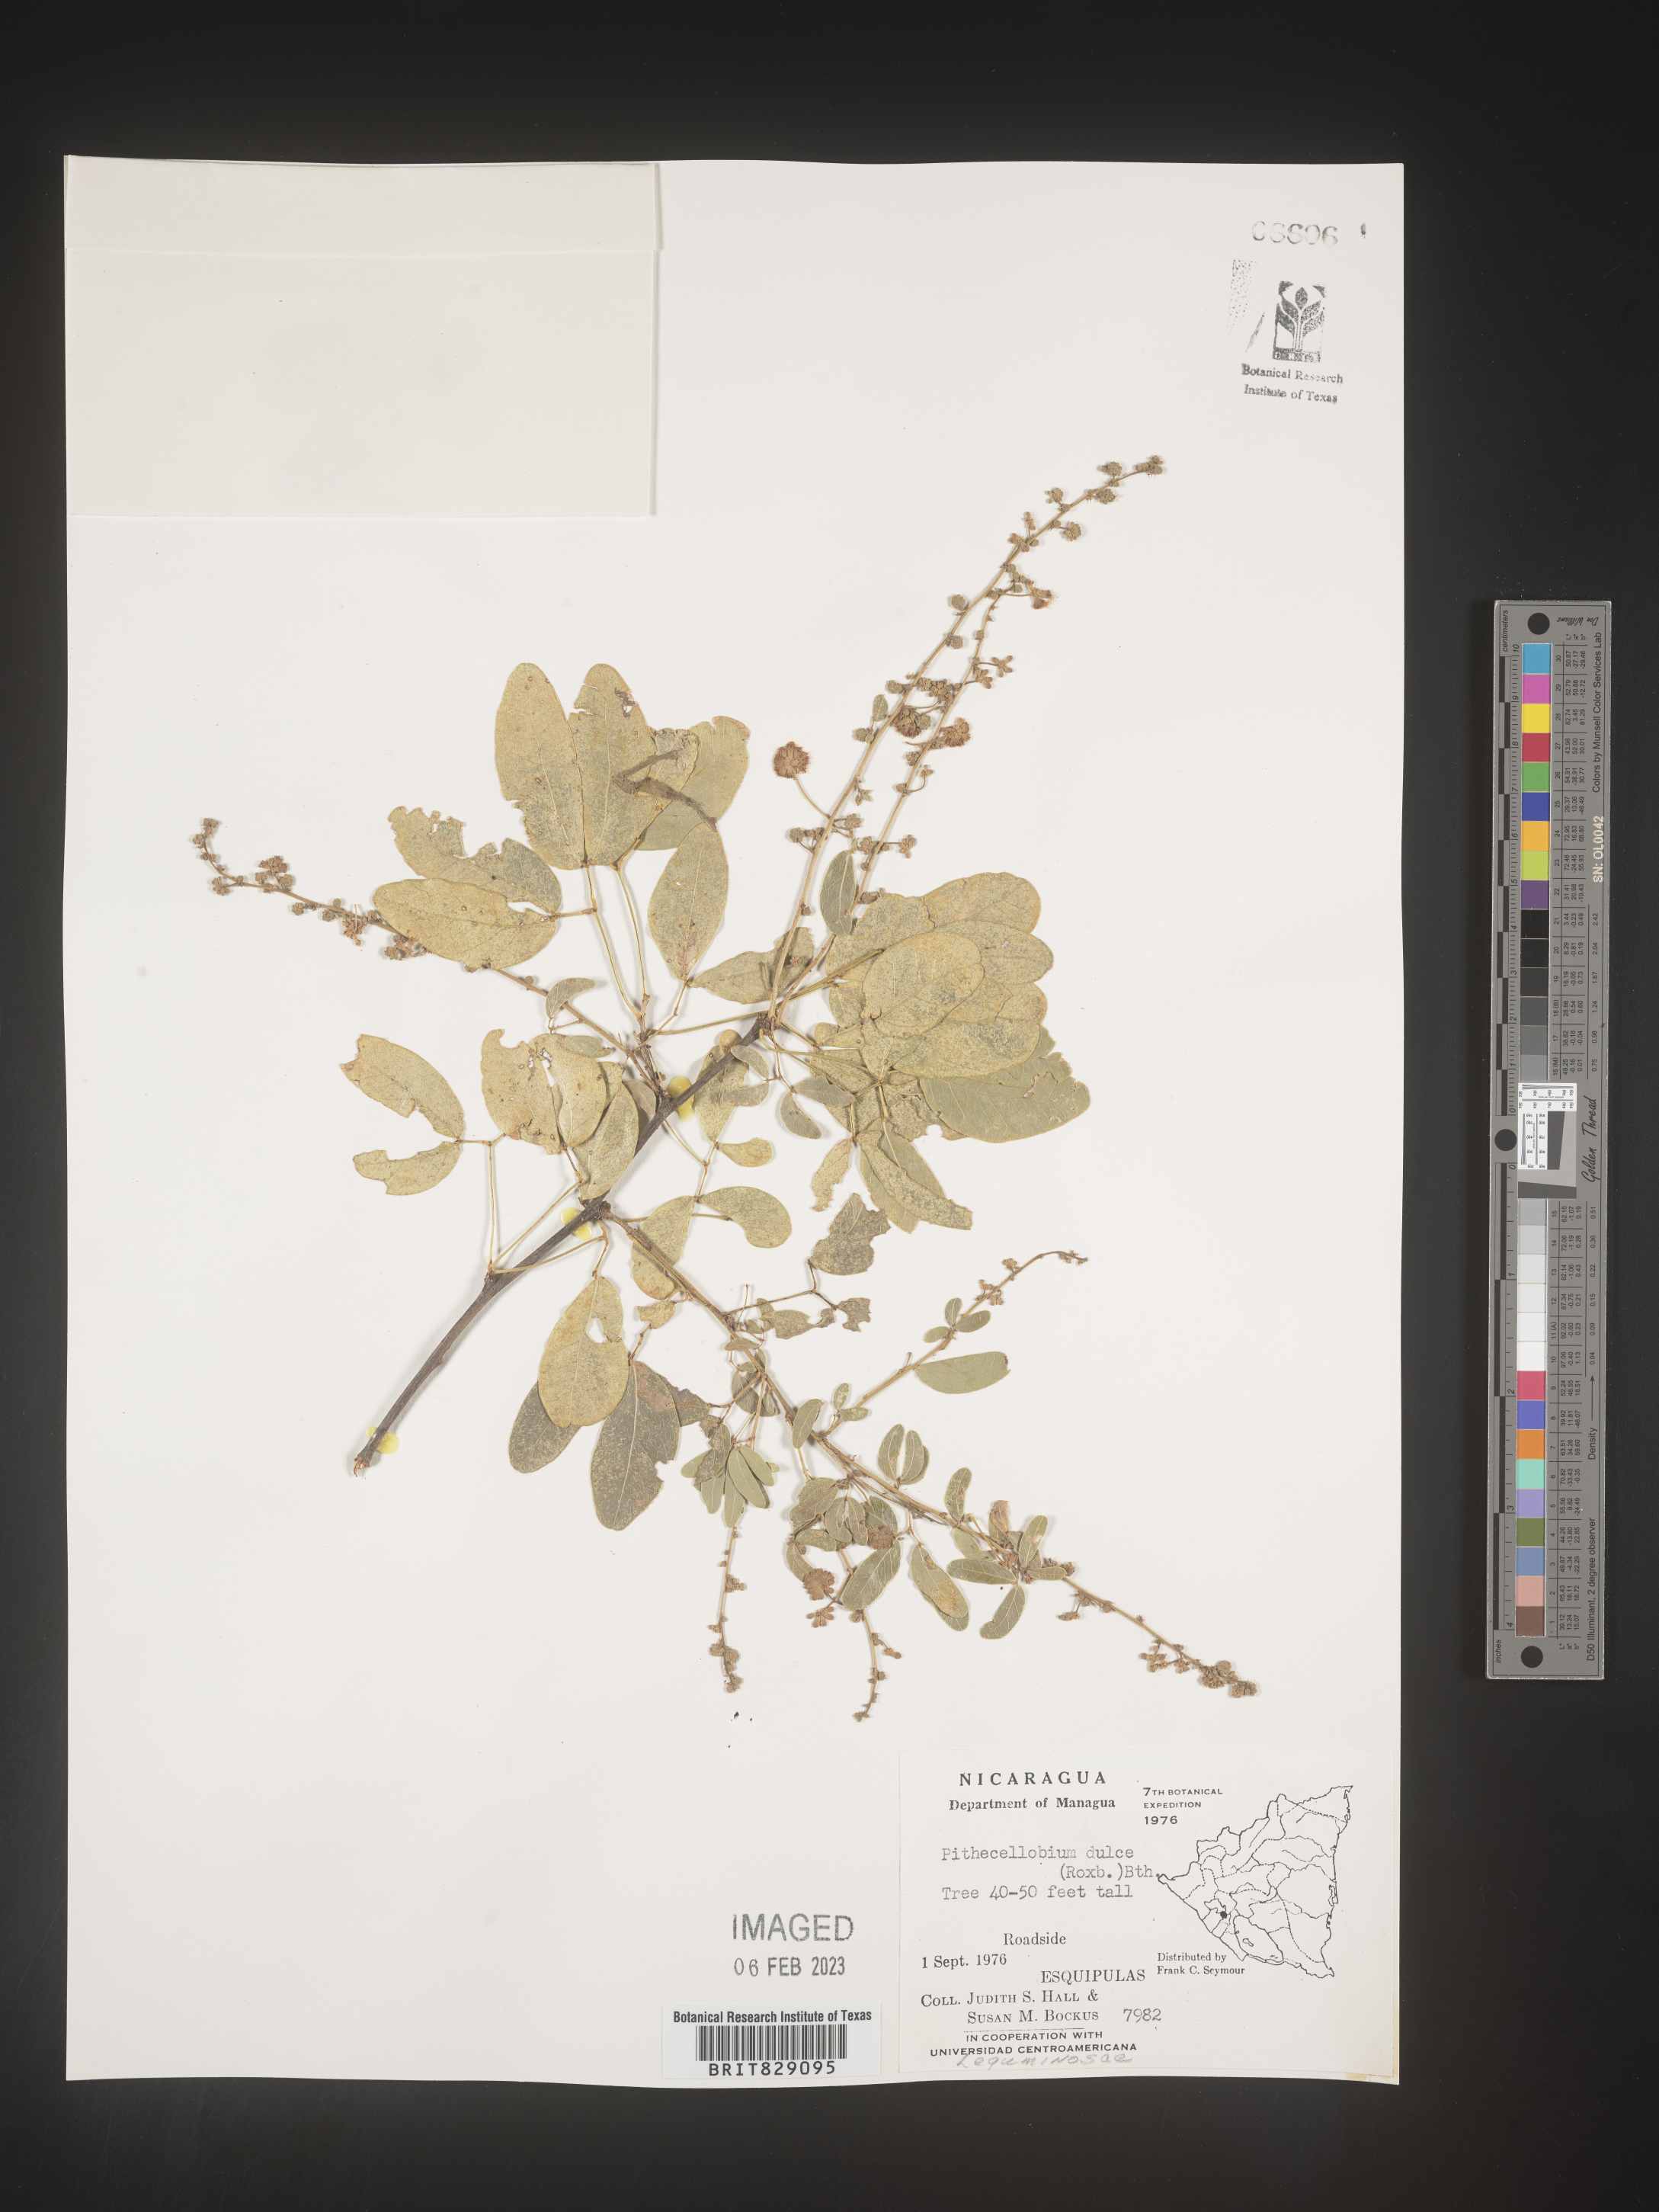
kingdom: Plantae
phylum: Tracheophyta
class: Magnoliopsida
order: Fabales
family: Fabaceae
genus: Pithecellobium
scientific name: Pithecellobium
